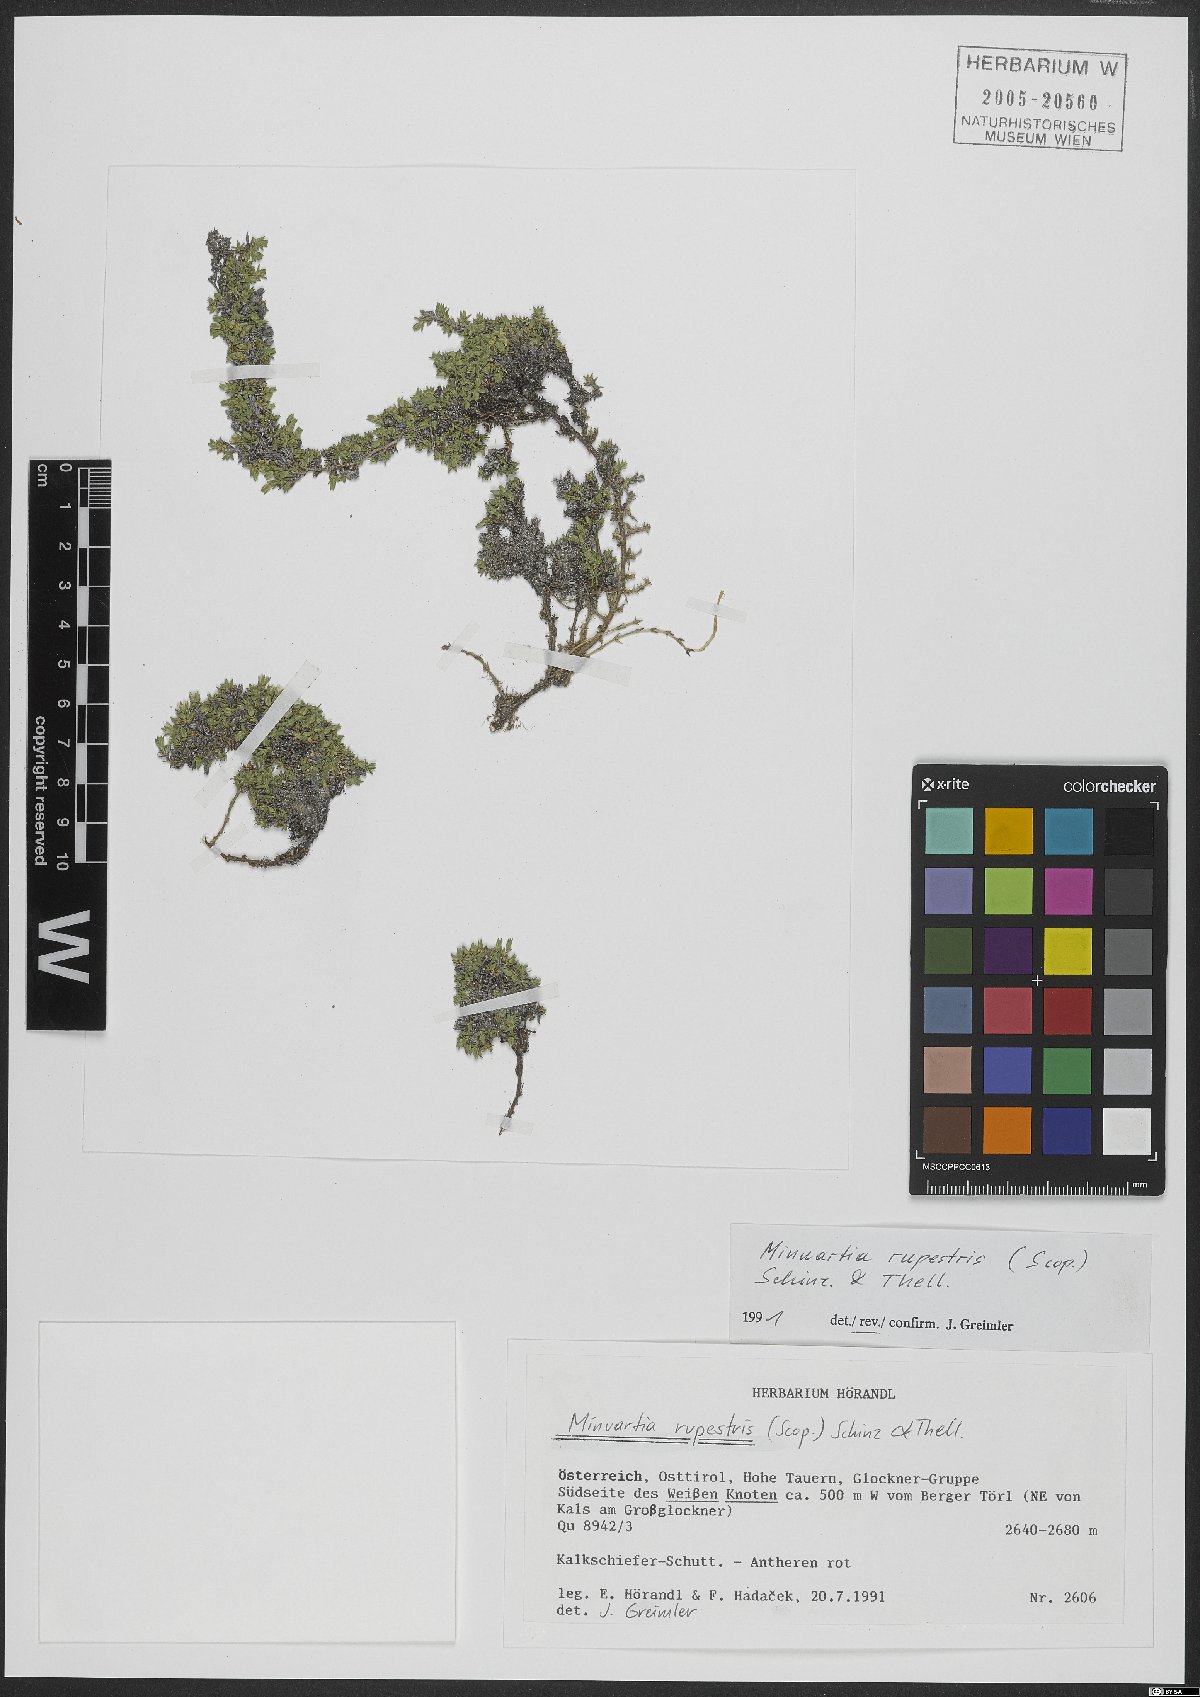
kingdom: Plantae
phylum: Tracheophyta
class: Magnoliopsida
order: Caryophyllales
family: Caryophyllaceae
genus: Facchinia
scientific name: Facchinia rupestris
